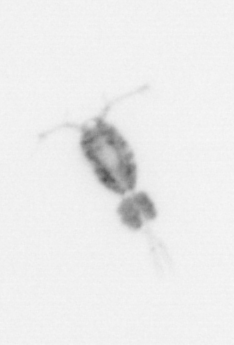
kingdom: Animalia
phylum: Arthropoda
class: Copepoda
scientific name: Copepoda
